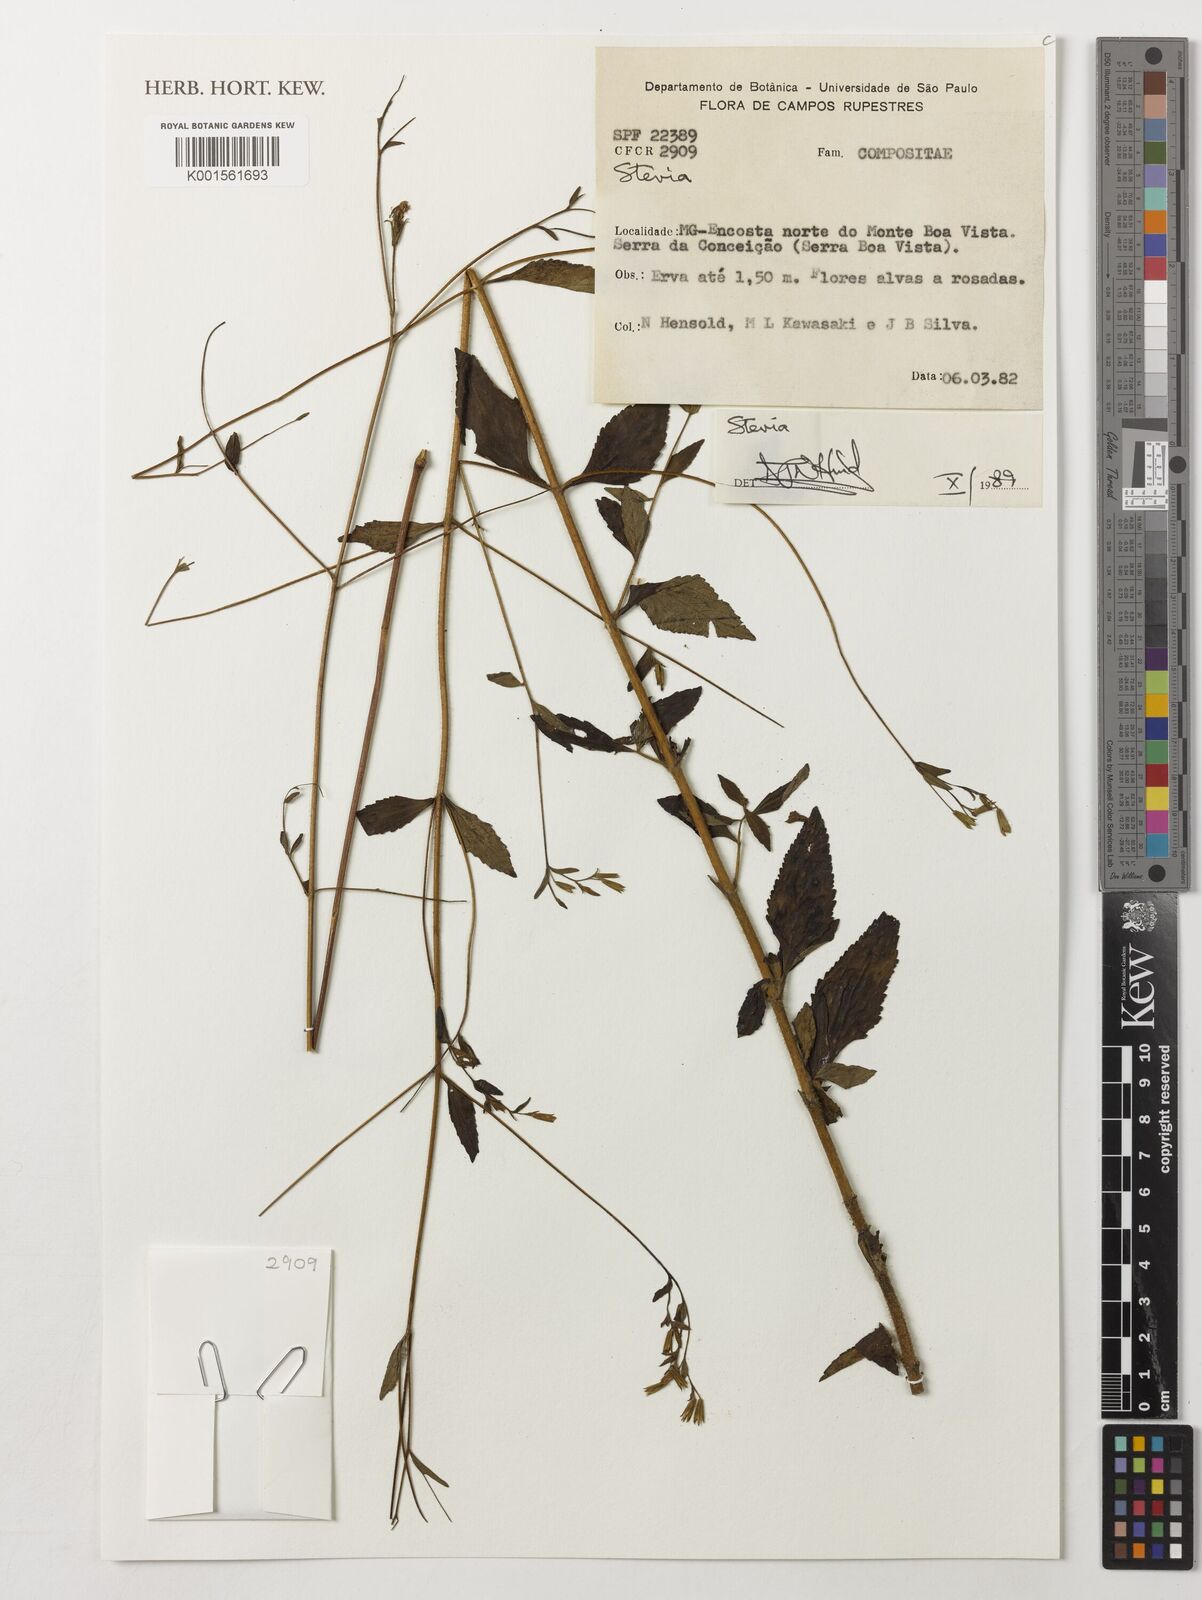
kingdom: Plantae
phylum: Tracheophyta
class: Magnoliopsida
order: Asterales
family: Asteraceae
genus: Stevia
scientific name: Stevia
